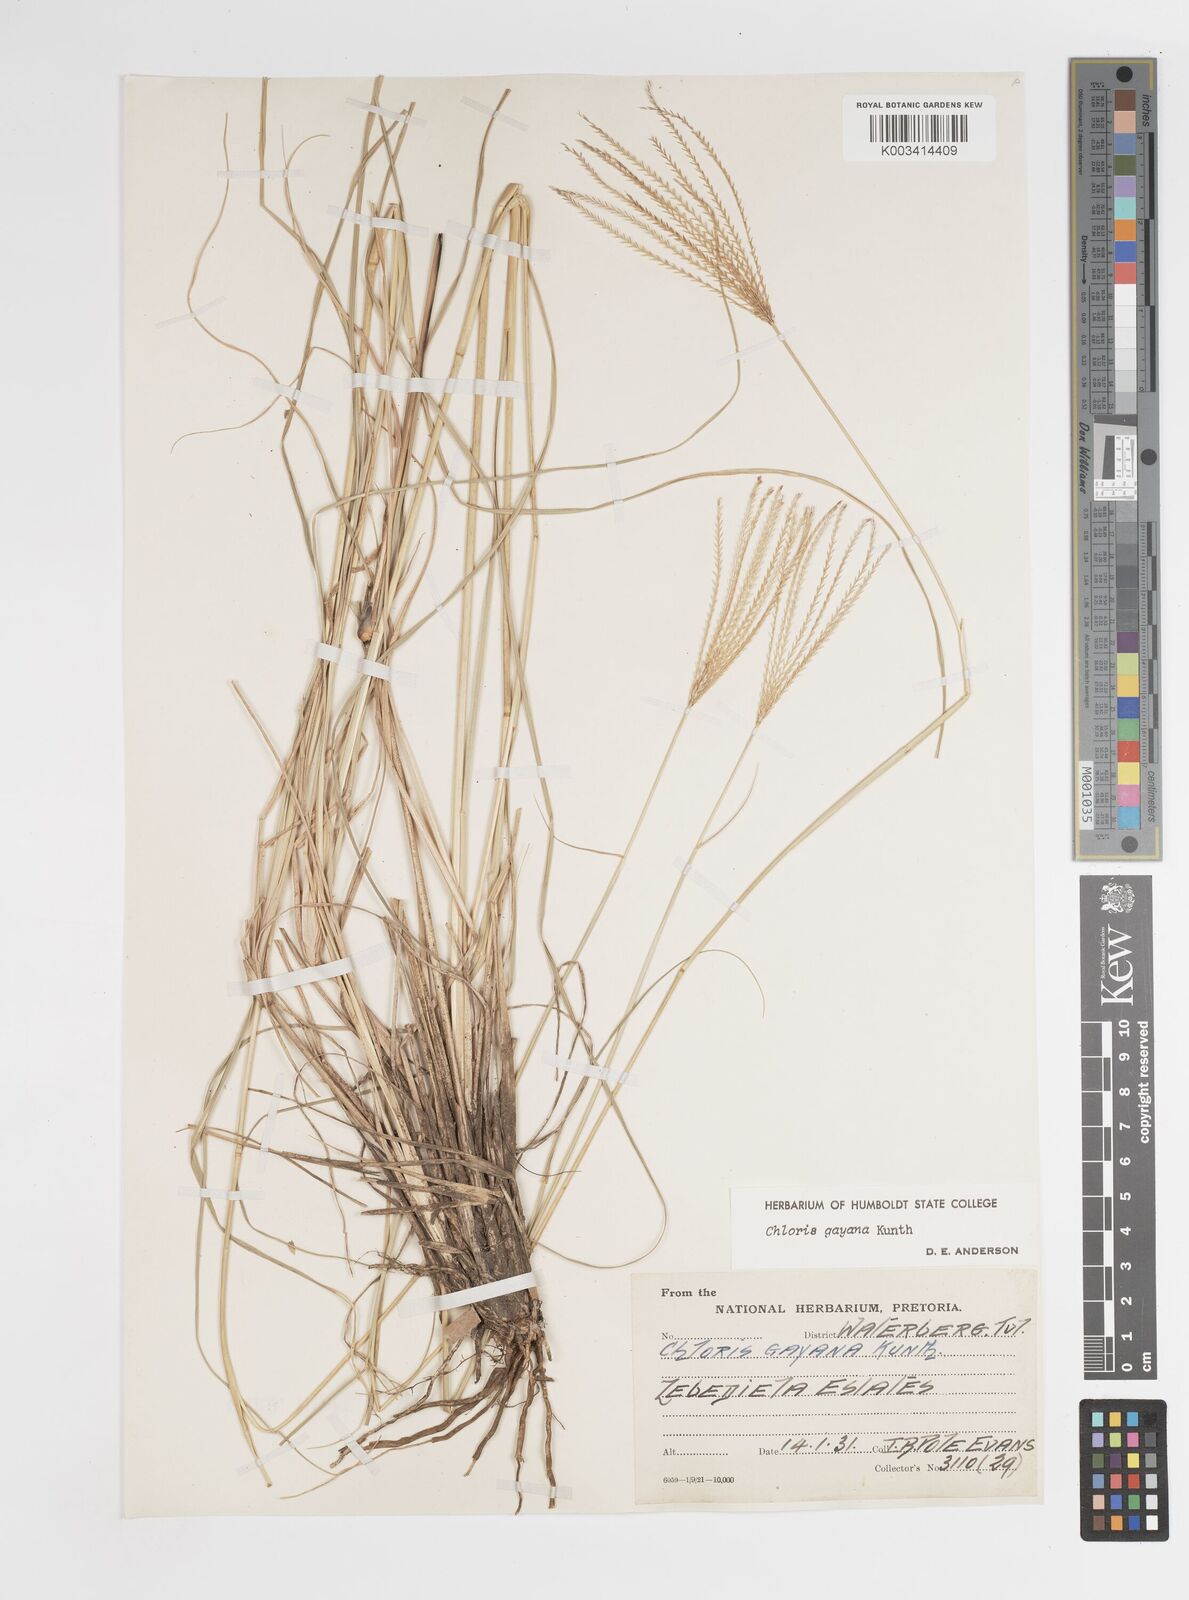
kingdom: Plantae
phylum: Tracheophyta
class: Liliopsida
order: Poales
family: Poaceae
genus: Chloris
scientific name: Chloris gayana
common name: Rhodes grass
